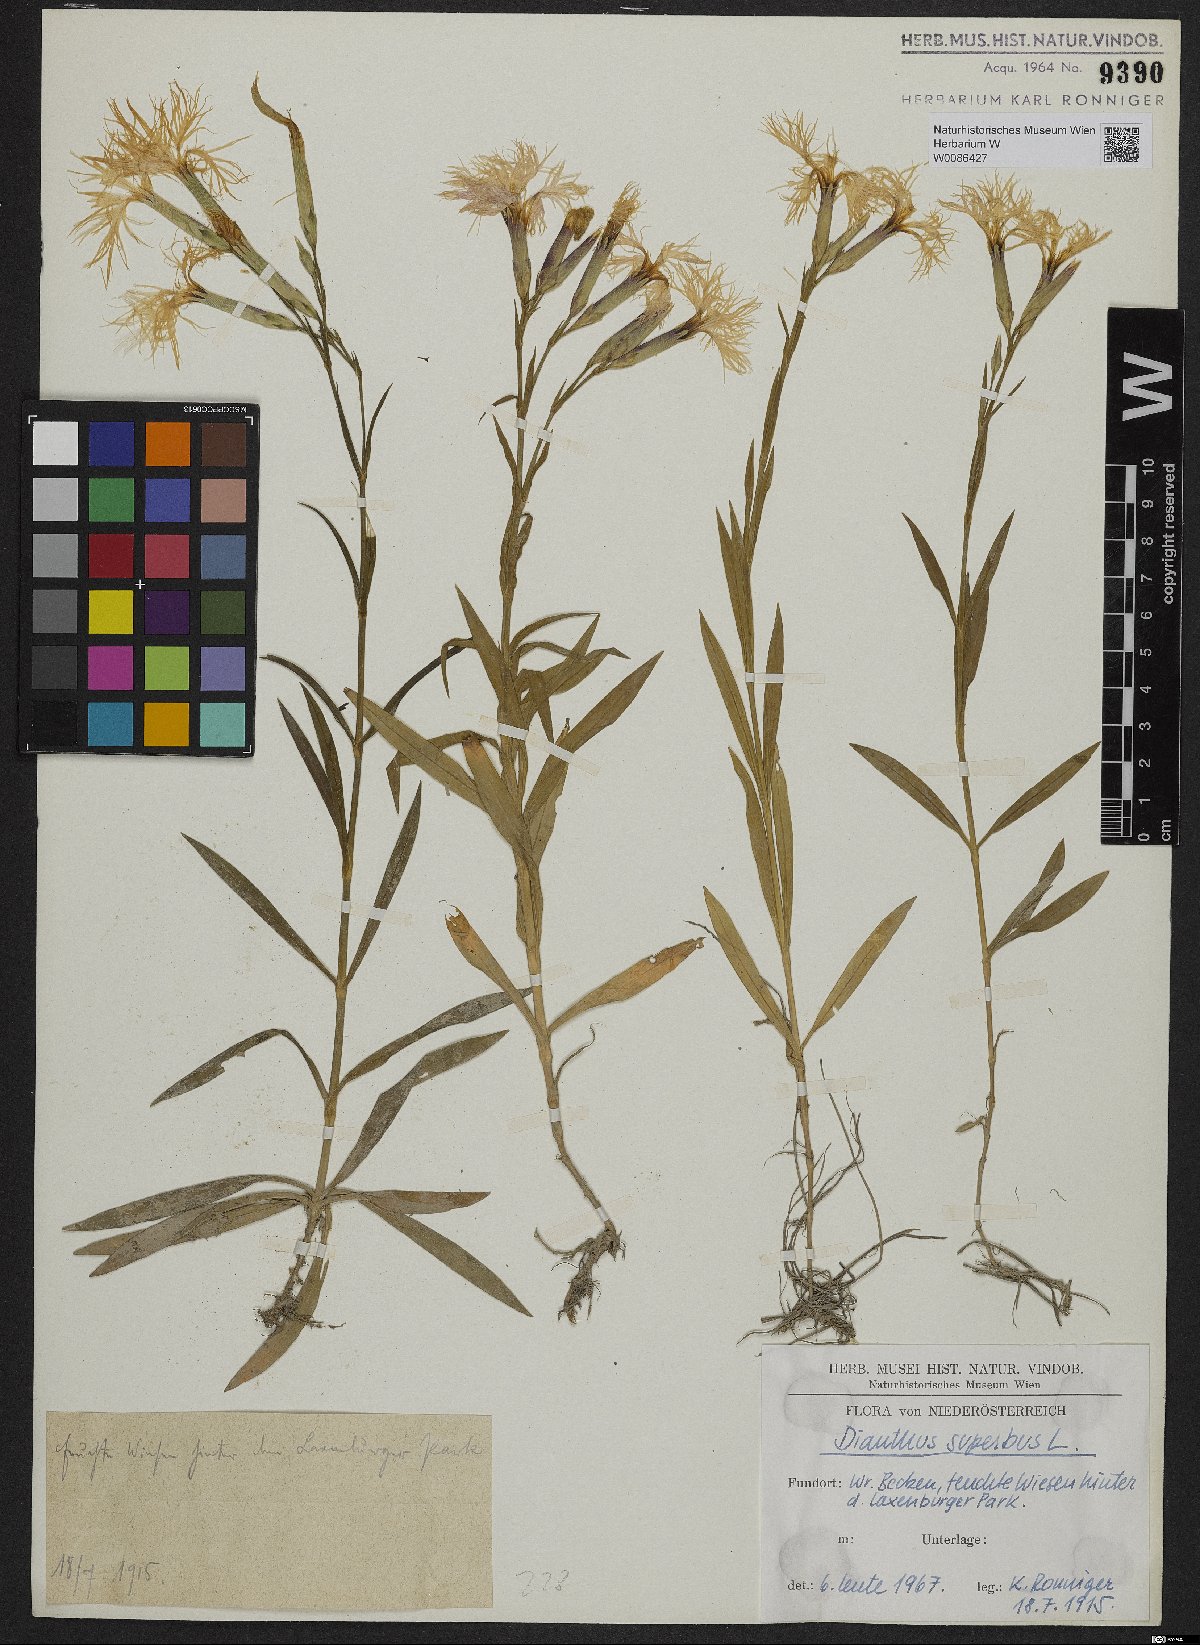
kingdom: Plantae
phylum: Tracheophyta
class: Magnoliopsida
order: Caryophyllales
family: Caryophyllaceae
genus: Dianthus
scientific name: Dianthus superbus
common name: Fringed pink
